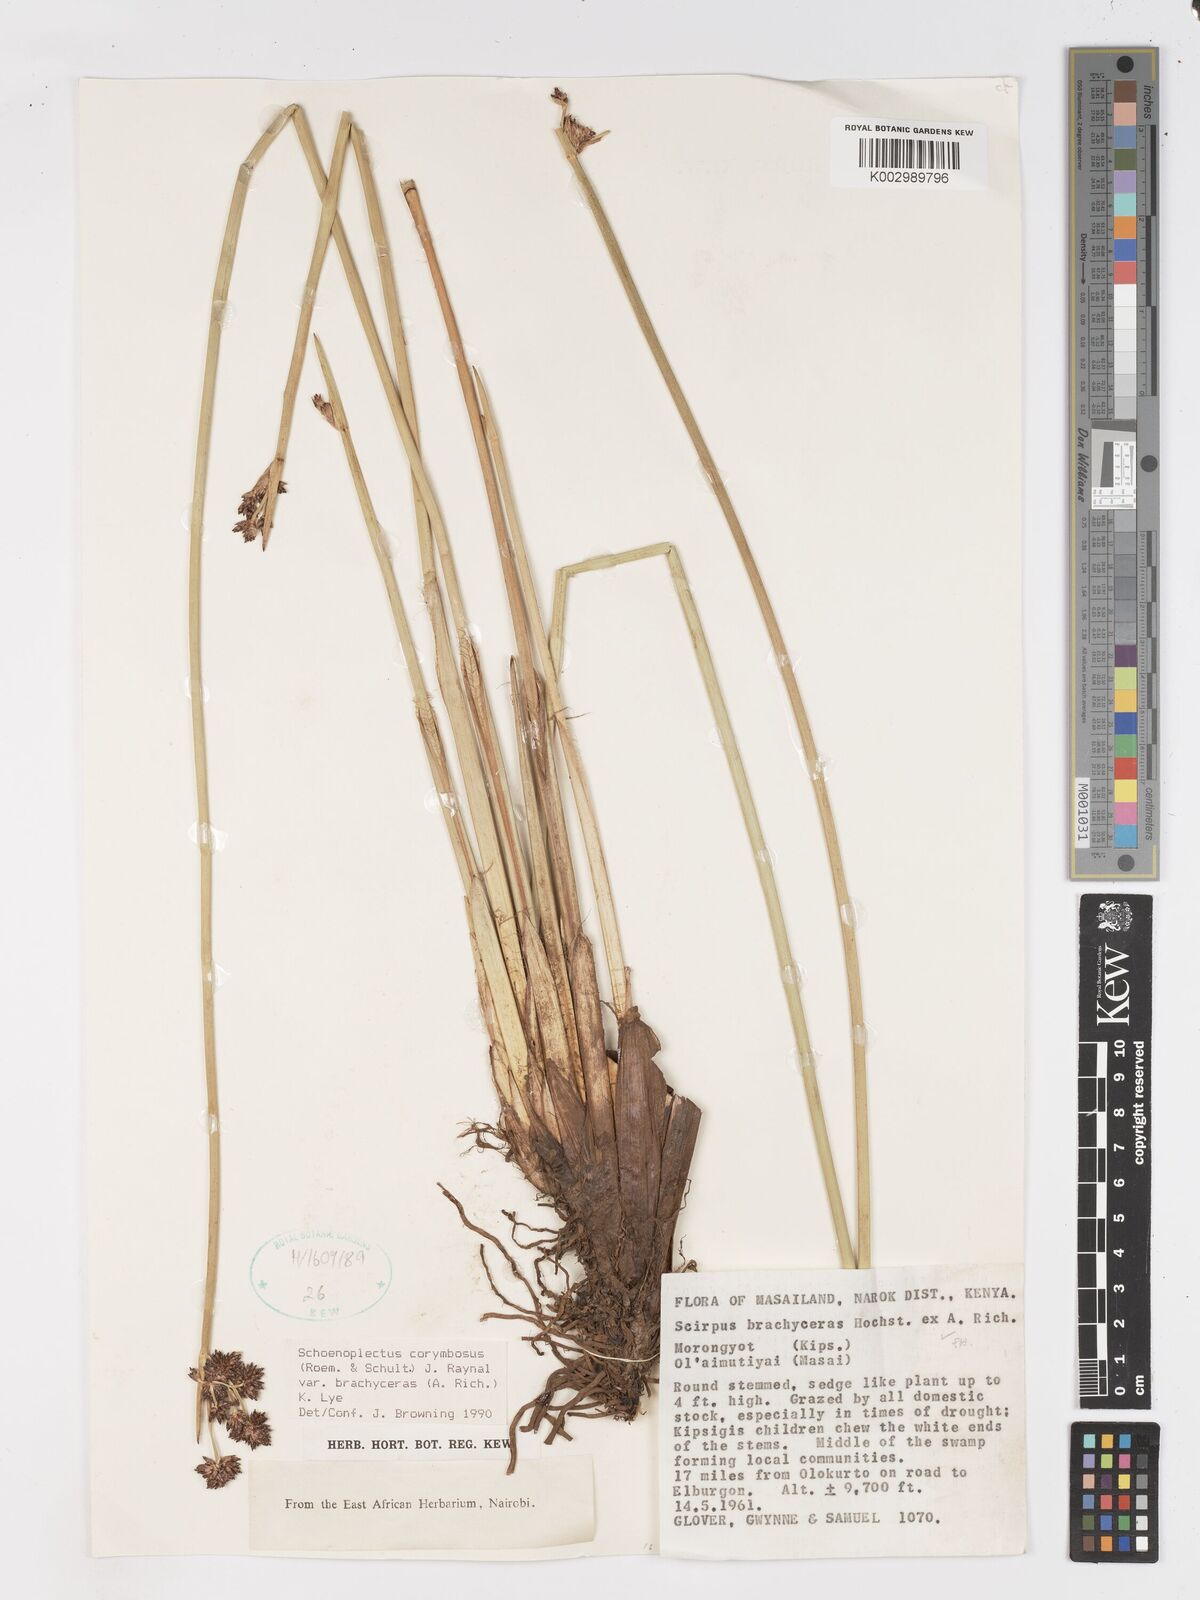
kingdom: Plantae
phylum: Tracheophyta
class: Liliopsida
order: Poales
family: Cyperaceae
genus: Schoenoplectiella
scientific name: Schoenoplectiella brachyceras
